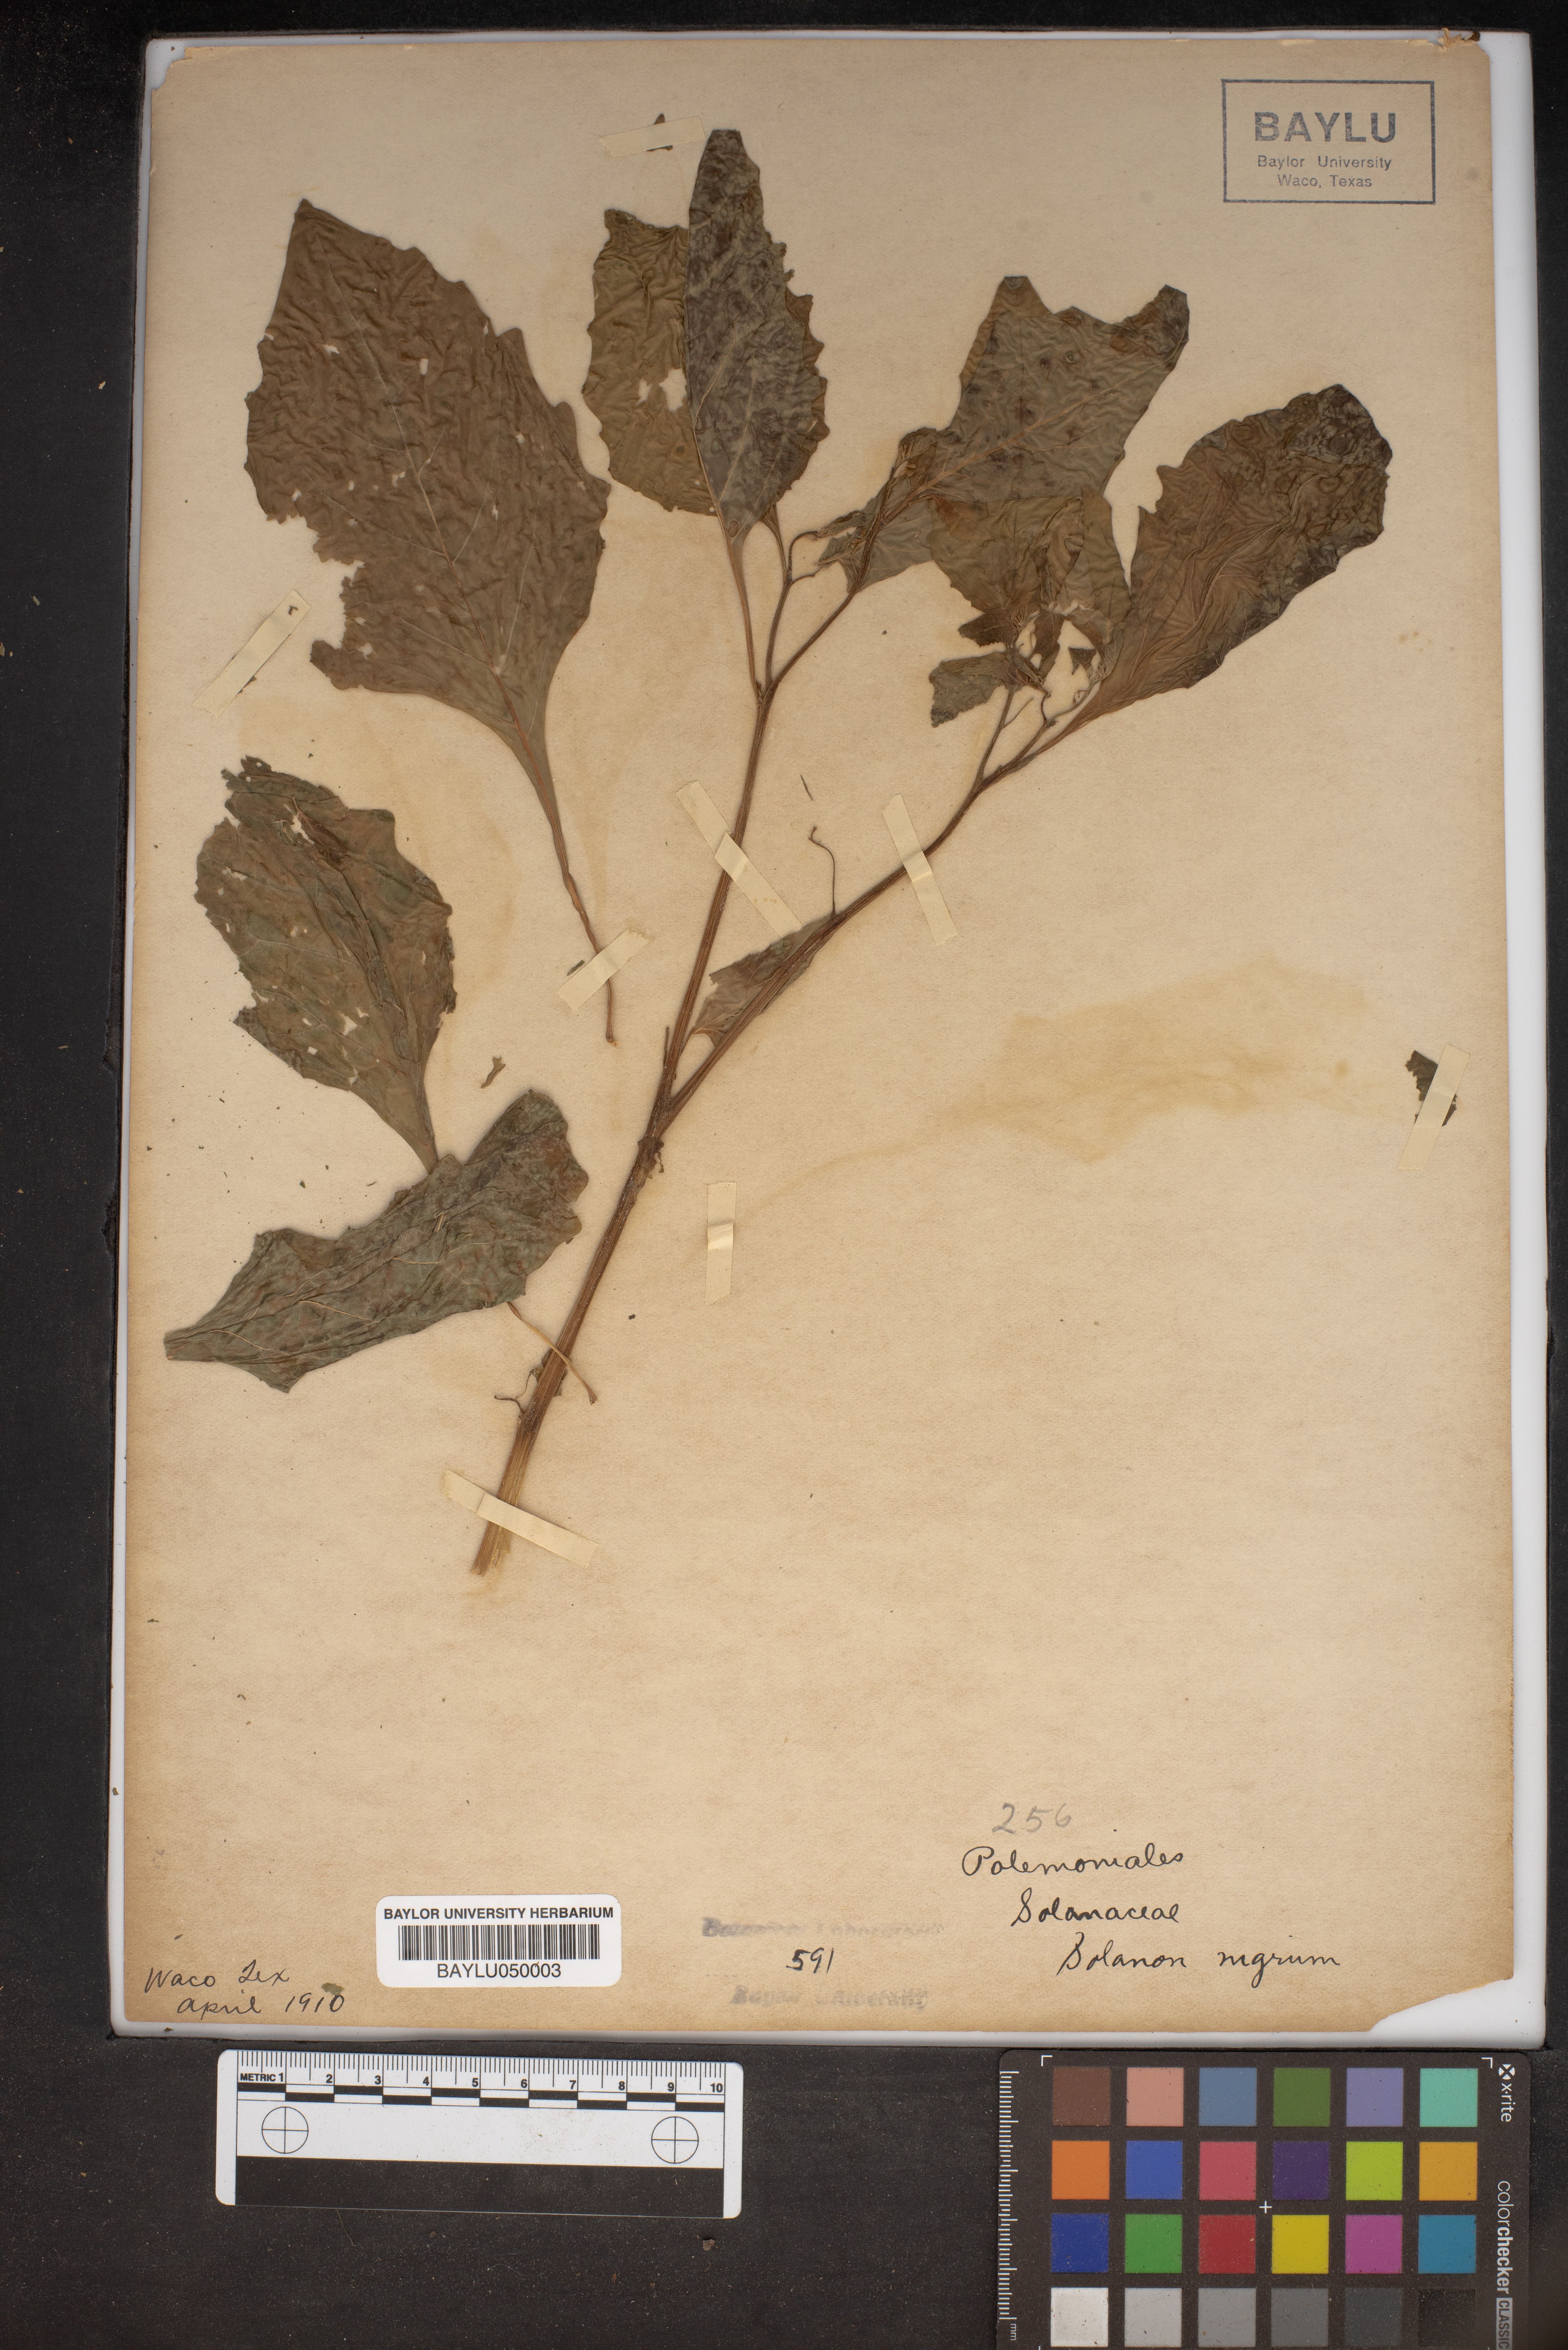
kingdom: Plantae
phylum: Tracheophyta
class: Magnoliopsida
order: Solanales
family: Solanaceae
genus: Solanum
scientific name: Solanum nigrum
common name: Black nightshade
